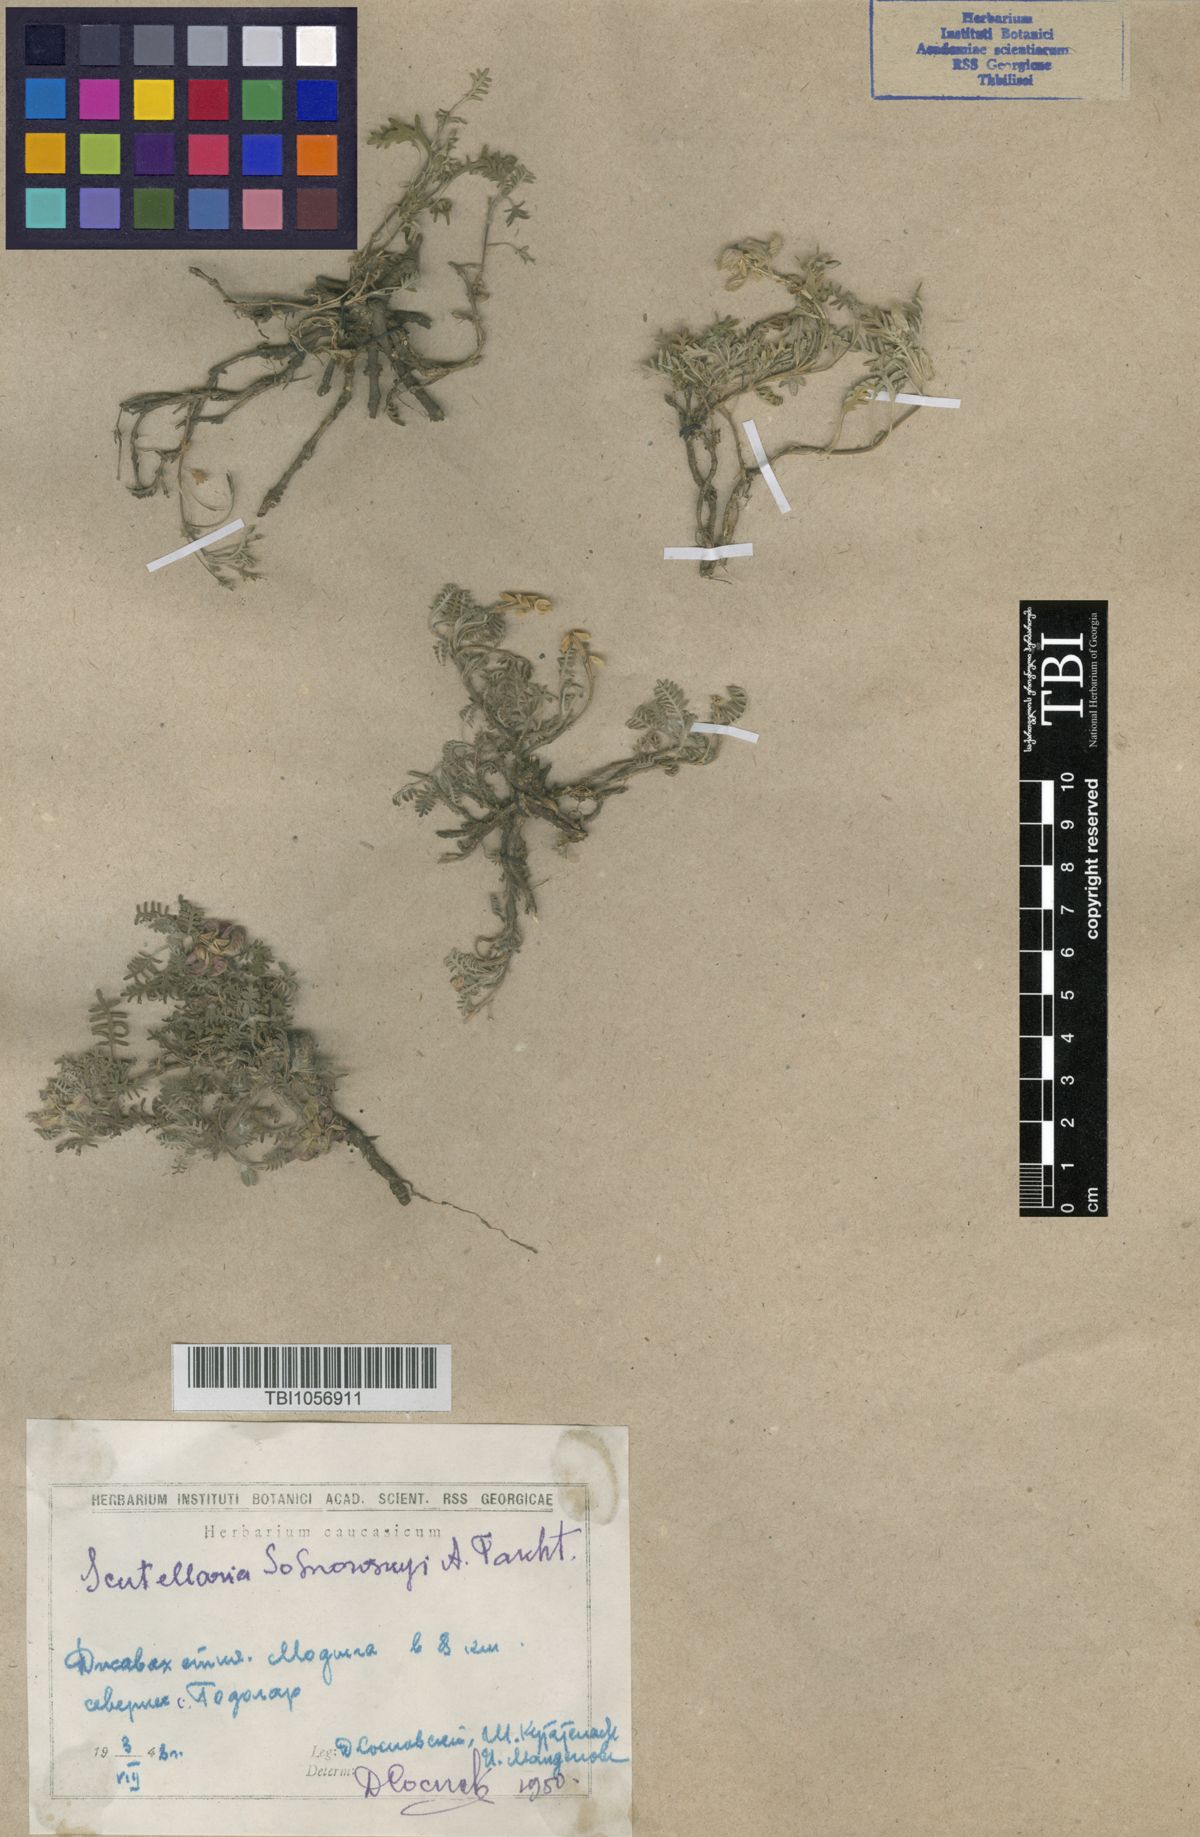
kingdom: Plantae
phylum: Tracheophyta
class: Magnoliopsida
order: Lamiales
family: Lamiaceae
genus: Scutellaria
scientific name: Scutellaria sosnowskyi
